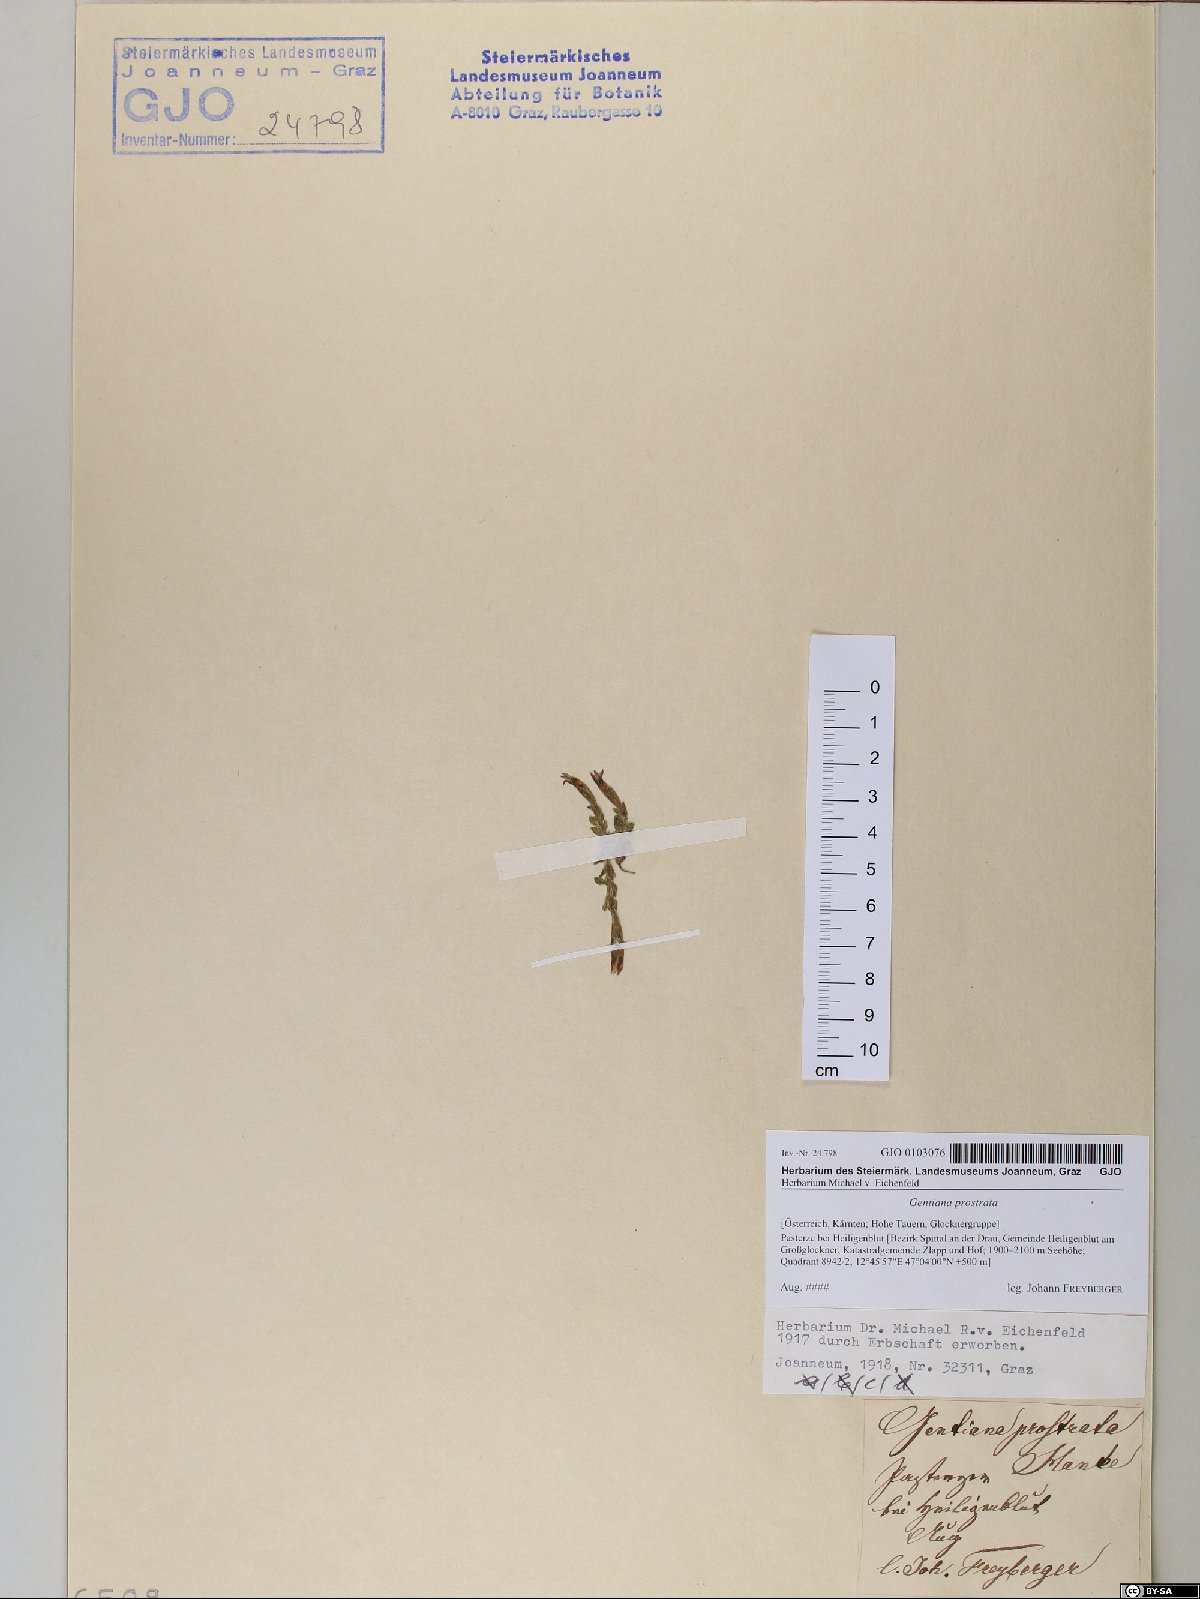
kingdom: Plantae
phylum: Tracheophyta
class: Magnoliopsida
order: Gentianales
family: Gentianaceae
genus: Gentiana
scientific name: Gentiana prostrata
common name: Moss gentian
